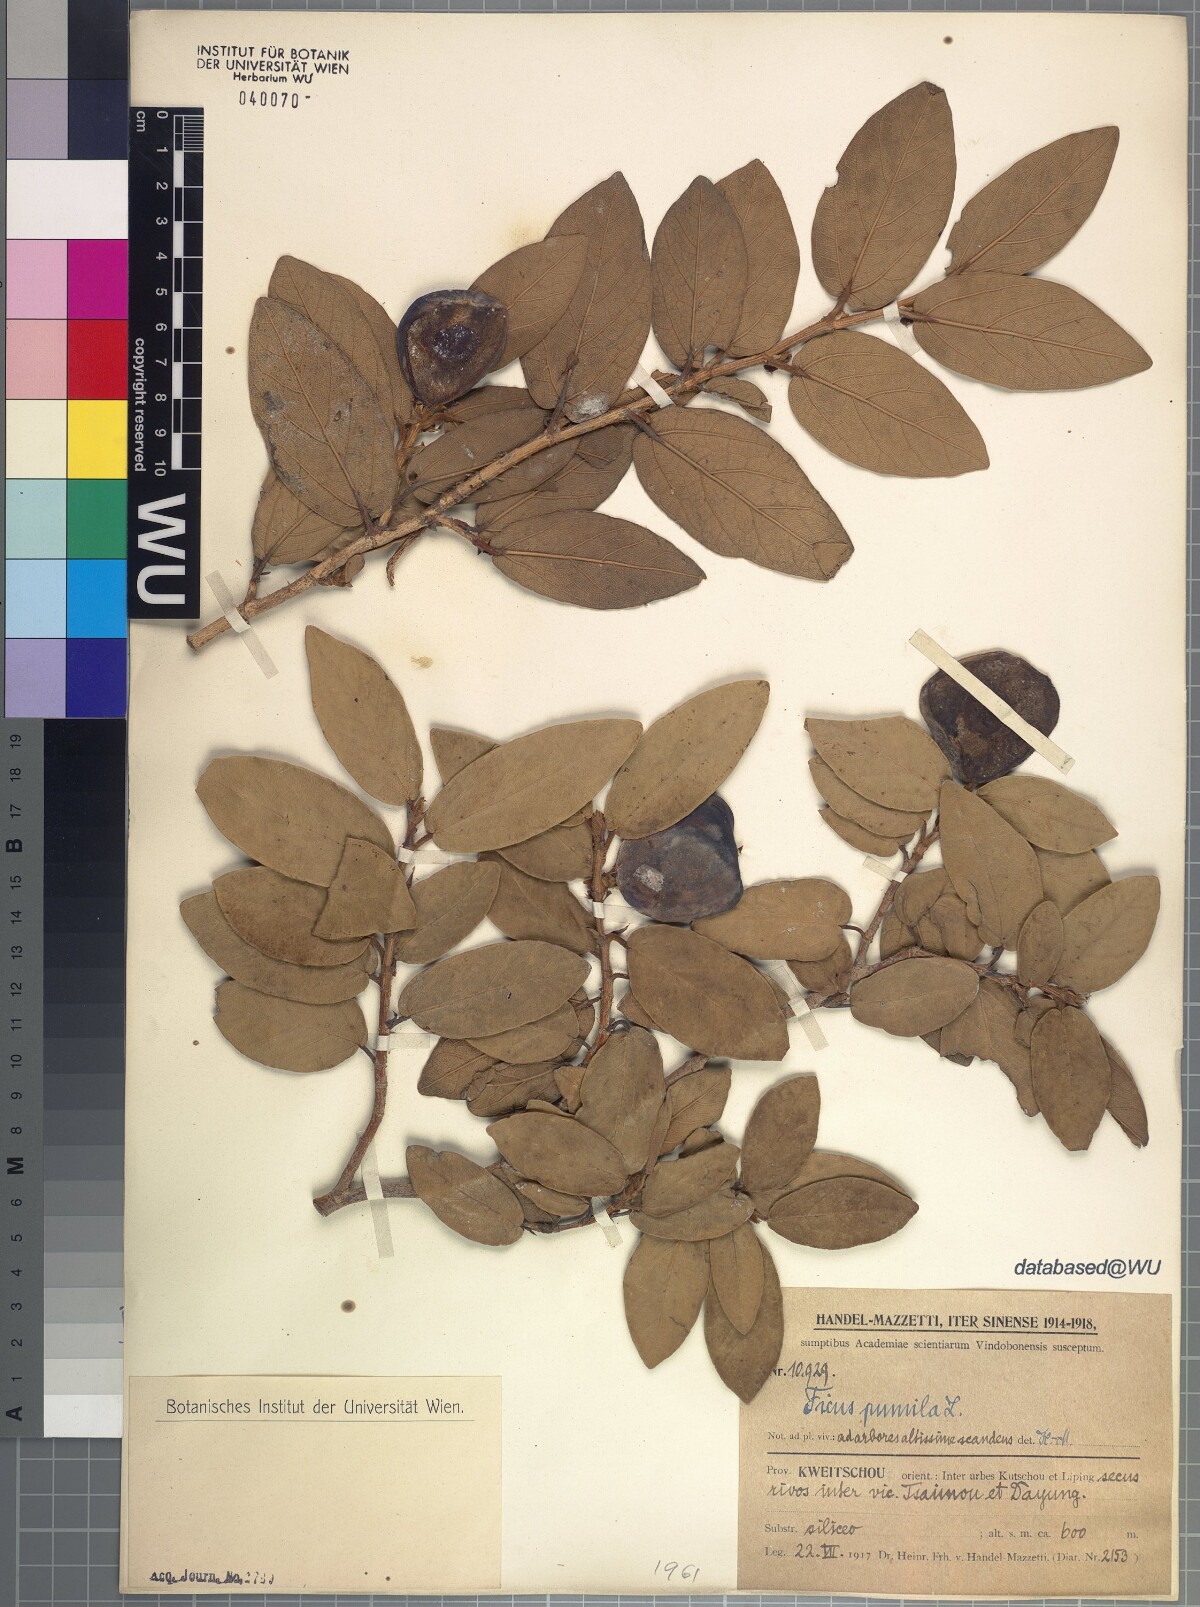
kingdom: Plantae
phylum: Tracheophyta
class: Magnoliopsida
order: Rosales
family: Moraceae
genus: Ficus
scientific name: Ficus pumila
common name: Climbingfig
